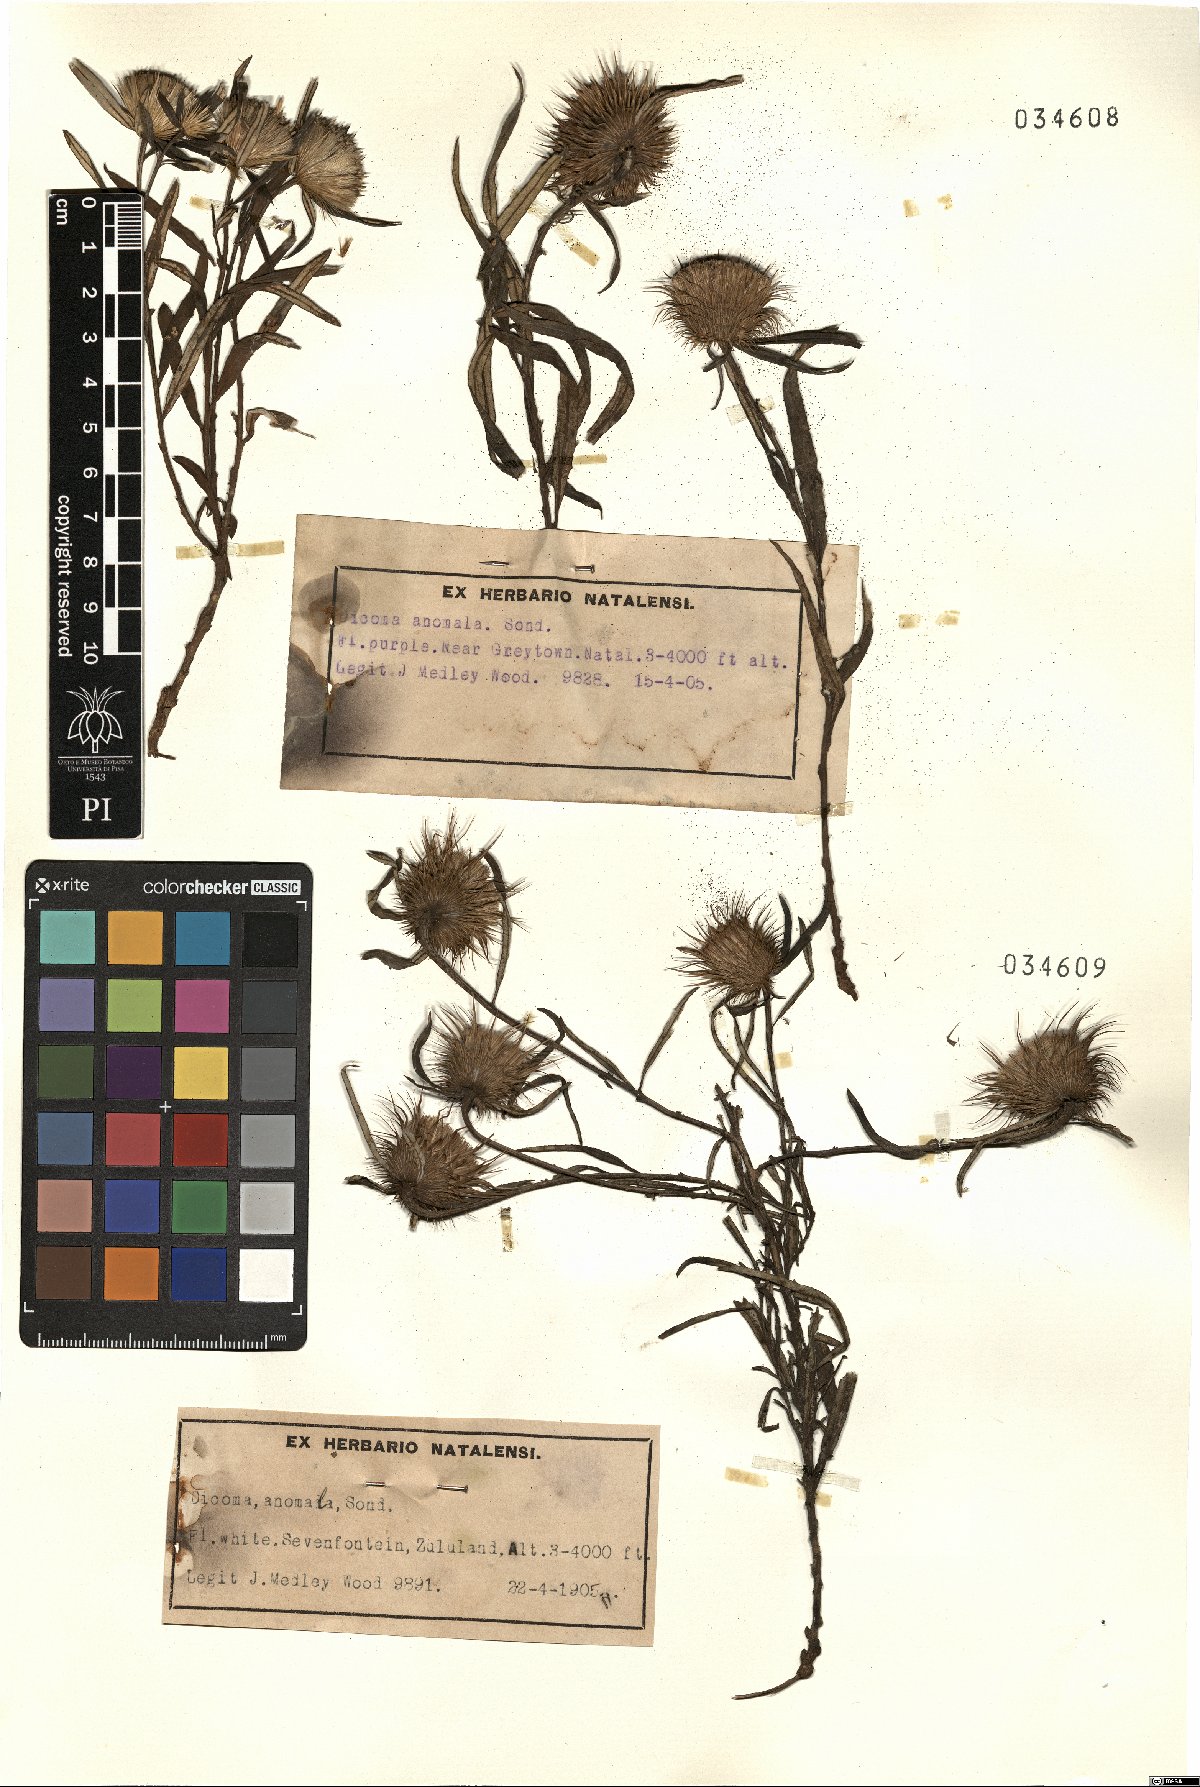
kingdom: Plantae
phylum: Tracheophyta
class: Magnoliopsida
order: Asterales
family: Asteraceae
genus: Dicoma
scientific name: Dicoma anomala
